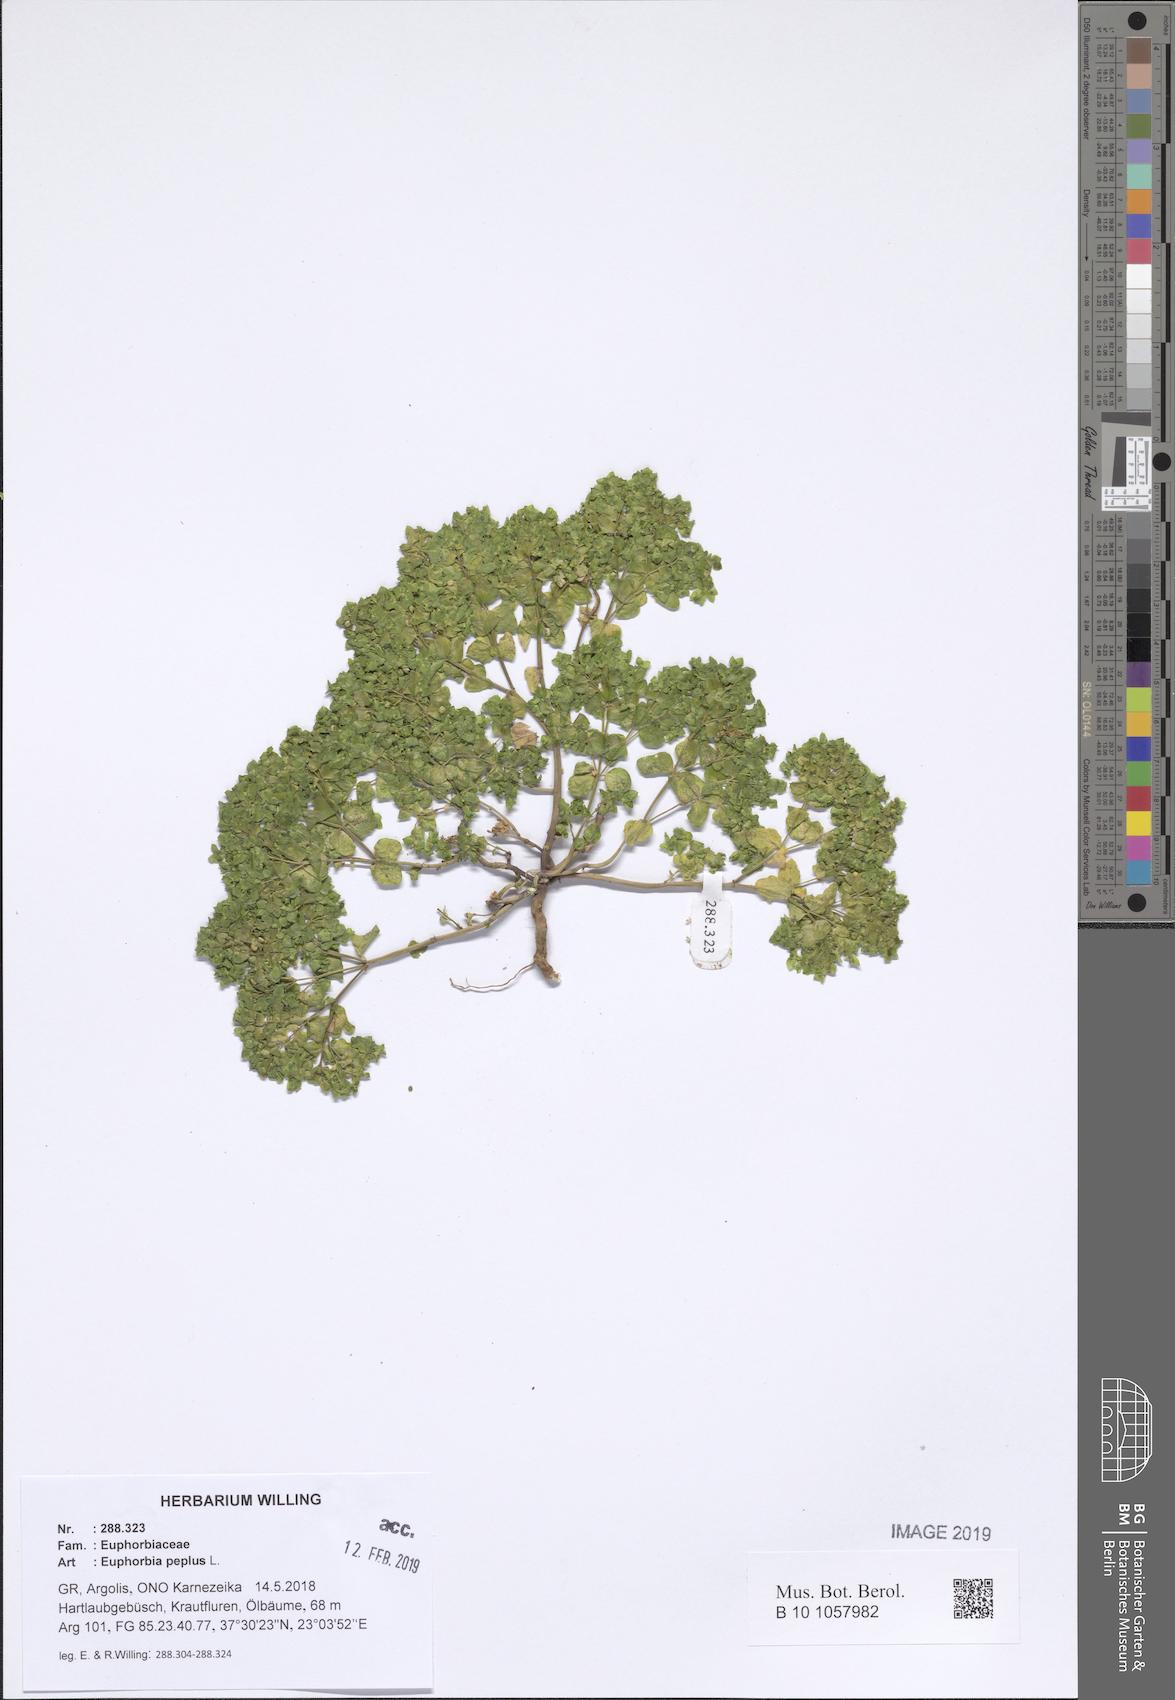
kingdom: Plantae
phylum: Tracheophyta
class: Magnoliopsida
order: Malpighiales
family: Euphorbiaceae
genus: Euphorbia
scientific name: Euphorbia peplus
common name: Petty spurge
